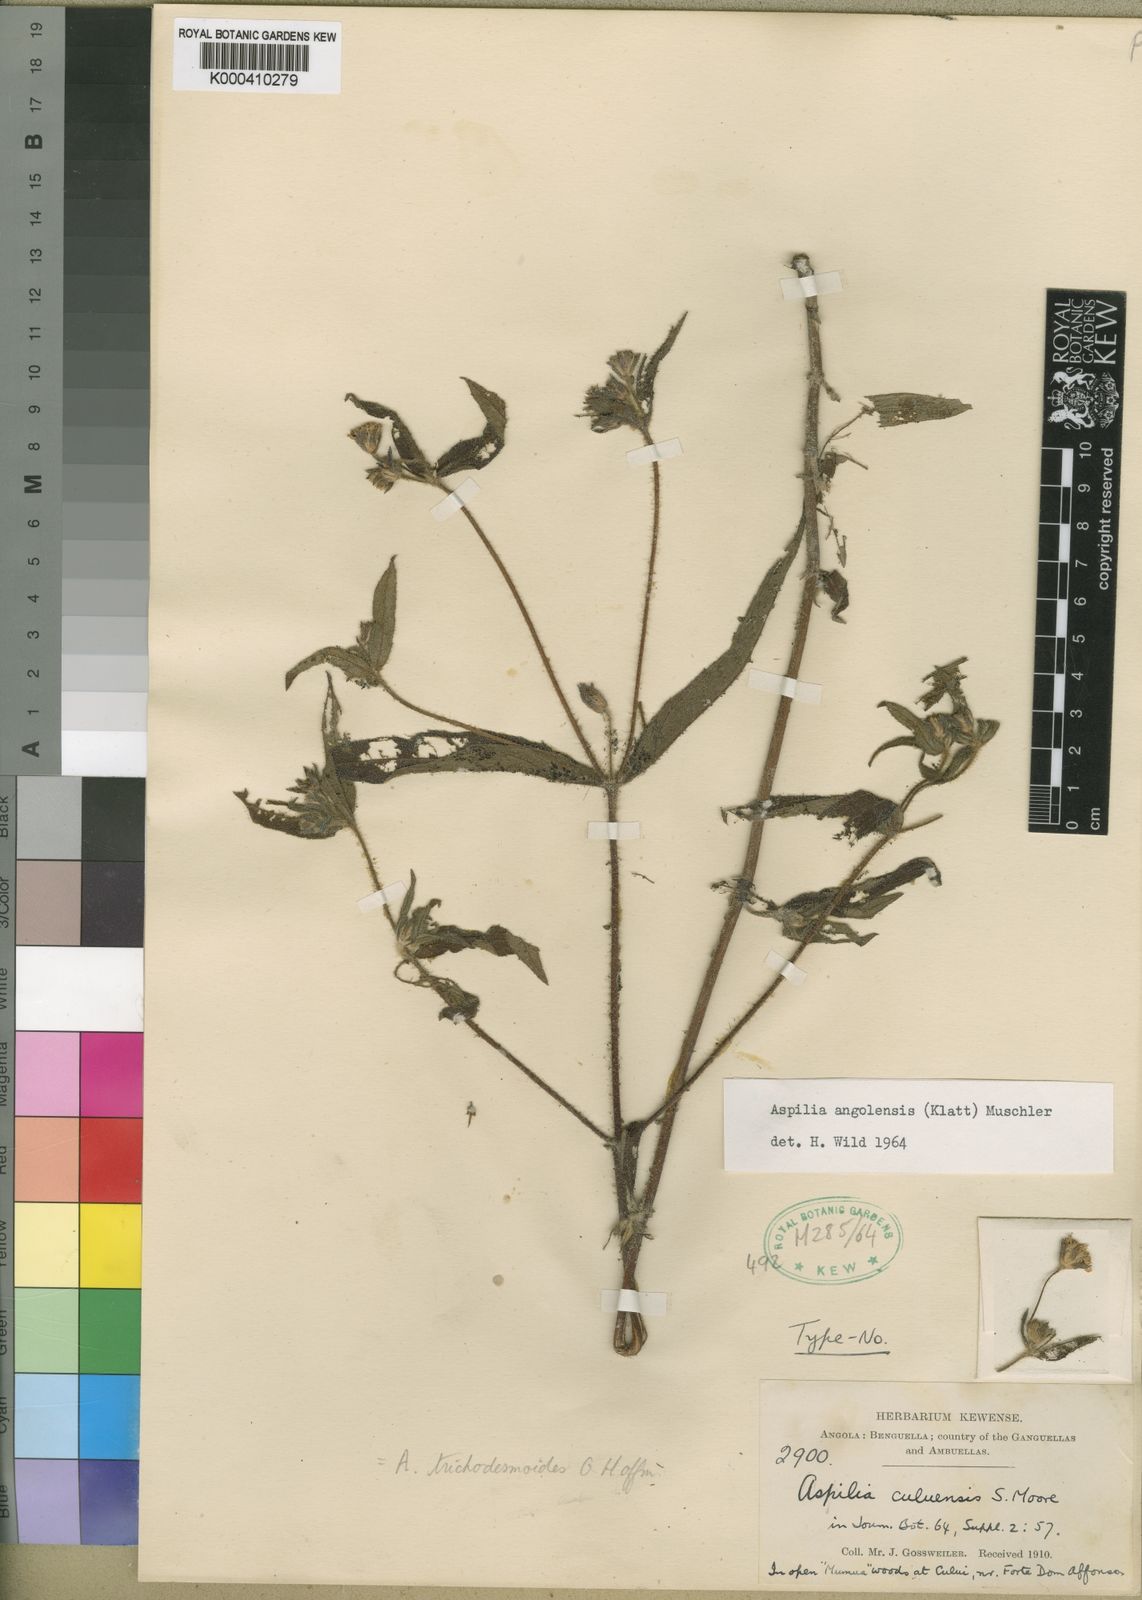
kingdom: Plantae
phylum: Tracheophyta
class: Magnoliopsida
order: Asterales
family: Asteraceae
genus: Aspilia
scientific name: Aspilia angolensis
